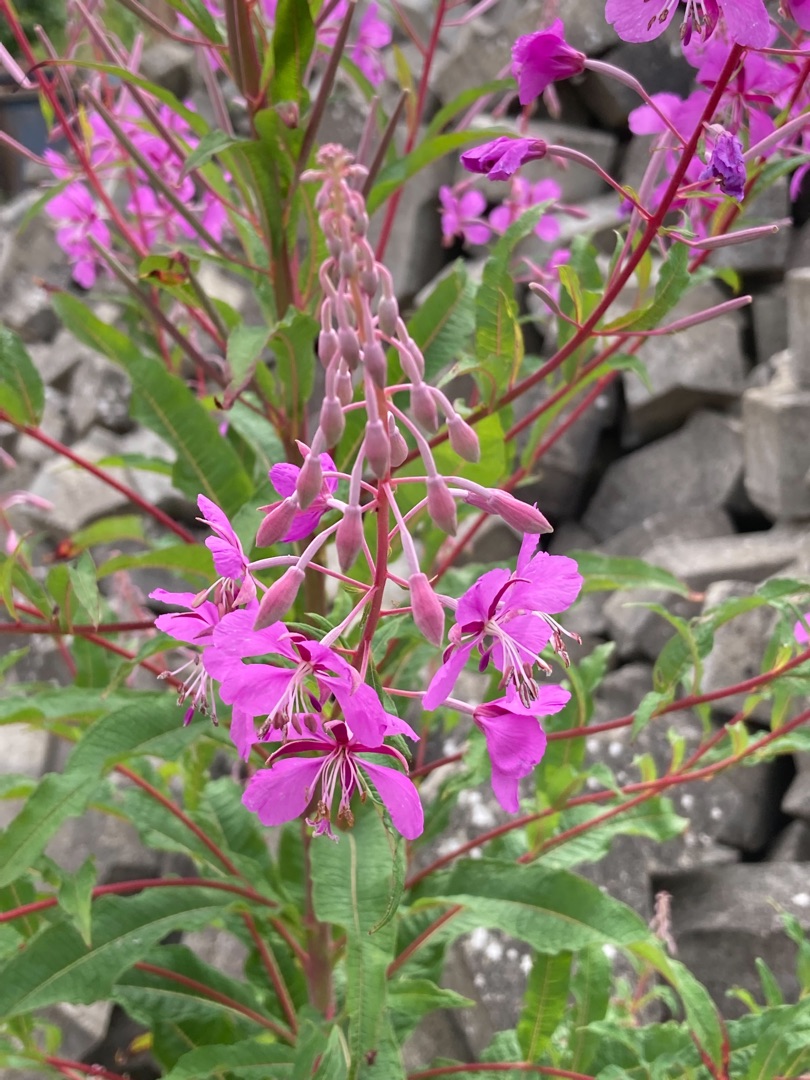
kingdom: Plantae
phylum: Tracheophyta
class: Magnoliopsida
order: Myrtales
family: Onagraceae
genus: Chamaenerion
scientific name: Chamaenerion angustifolium
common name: Gederams
